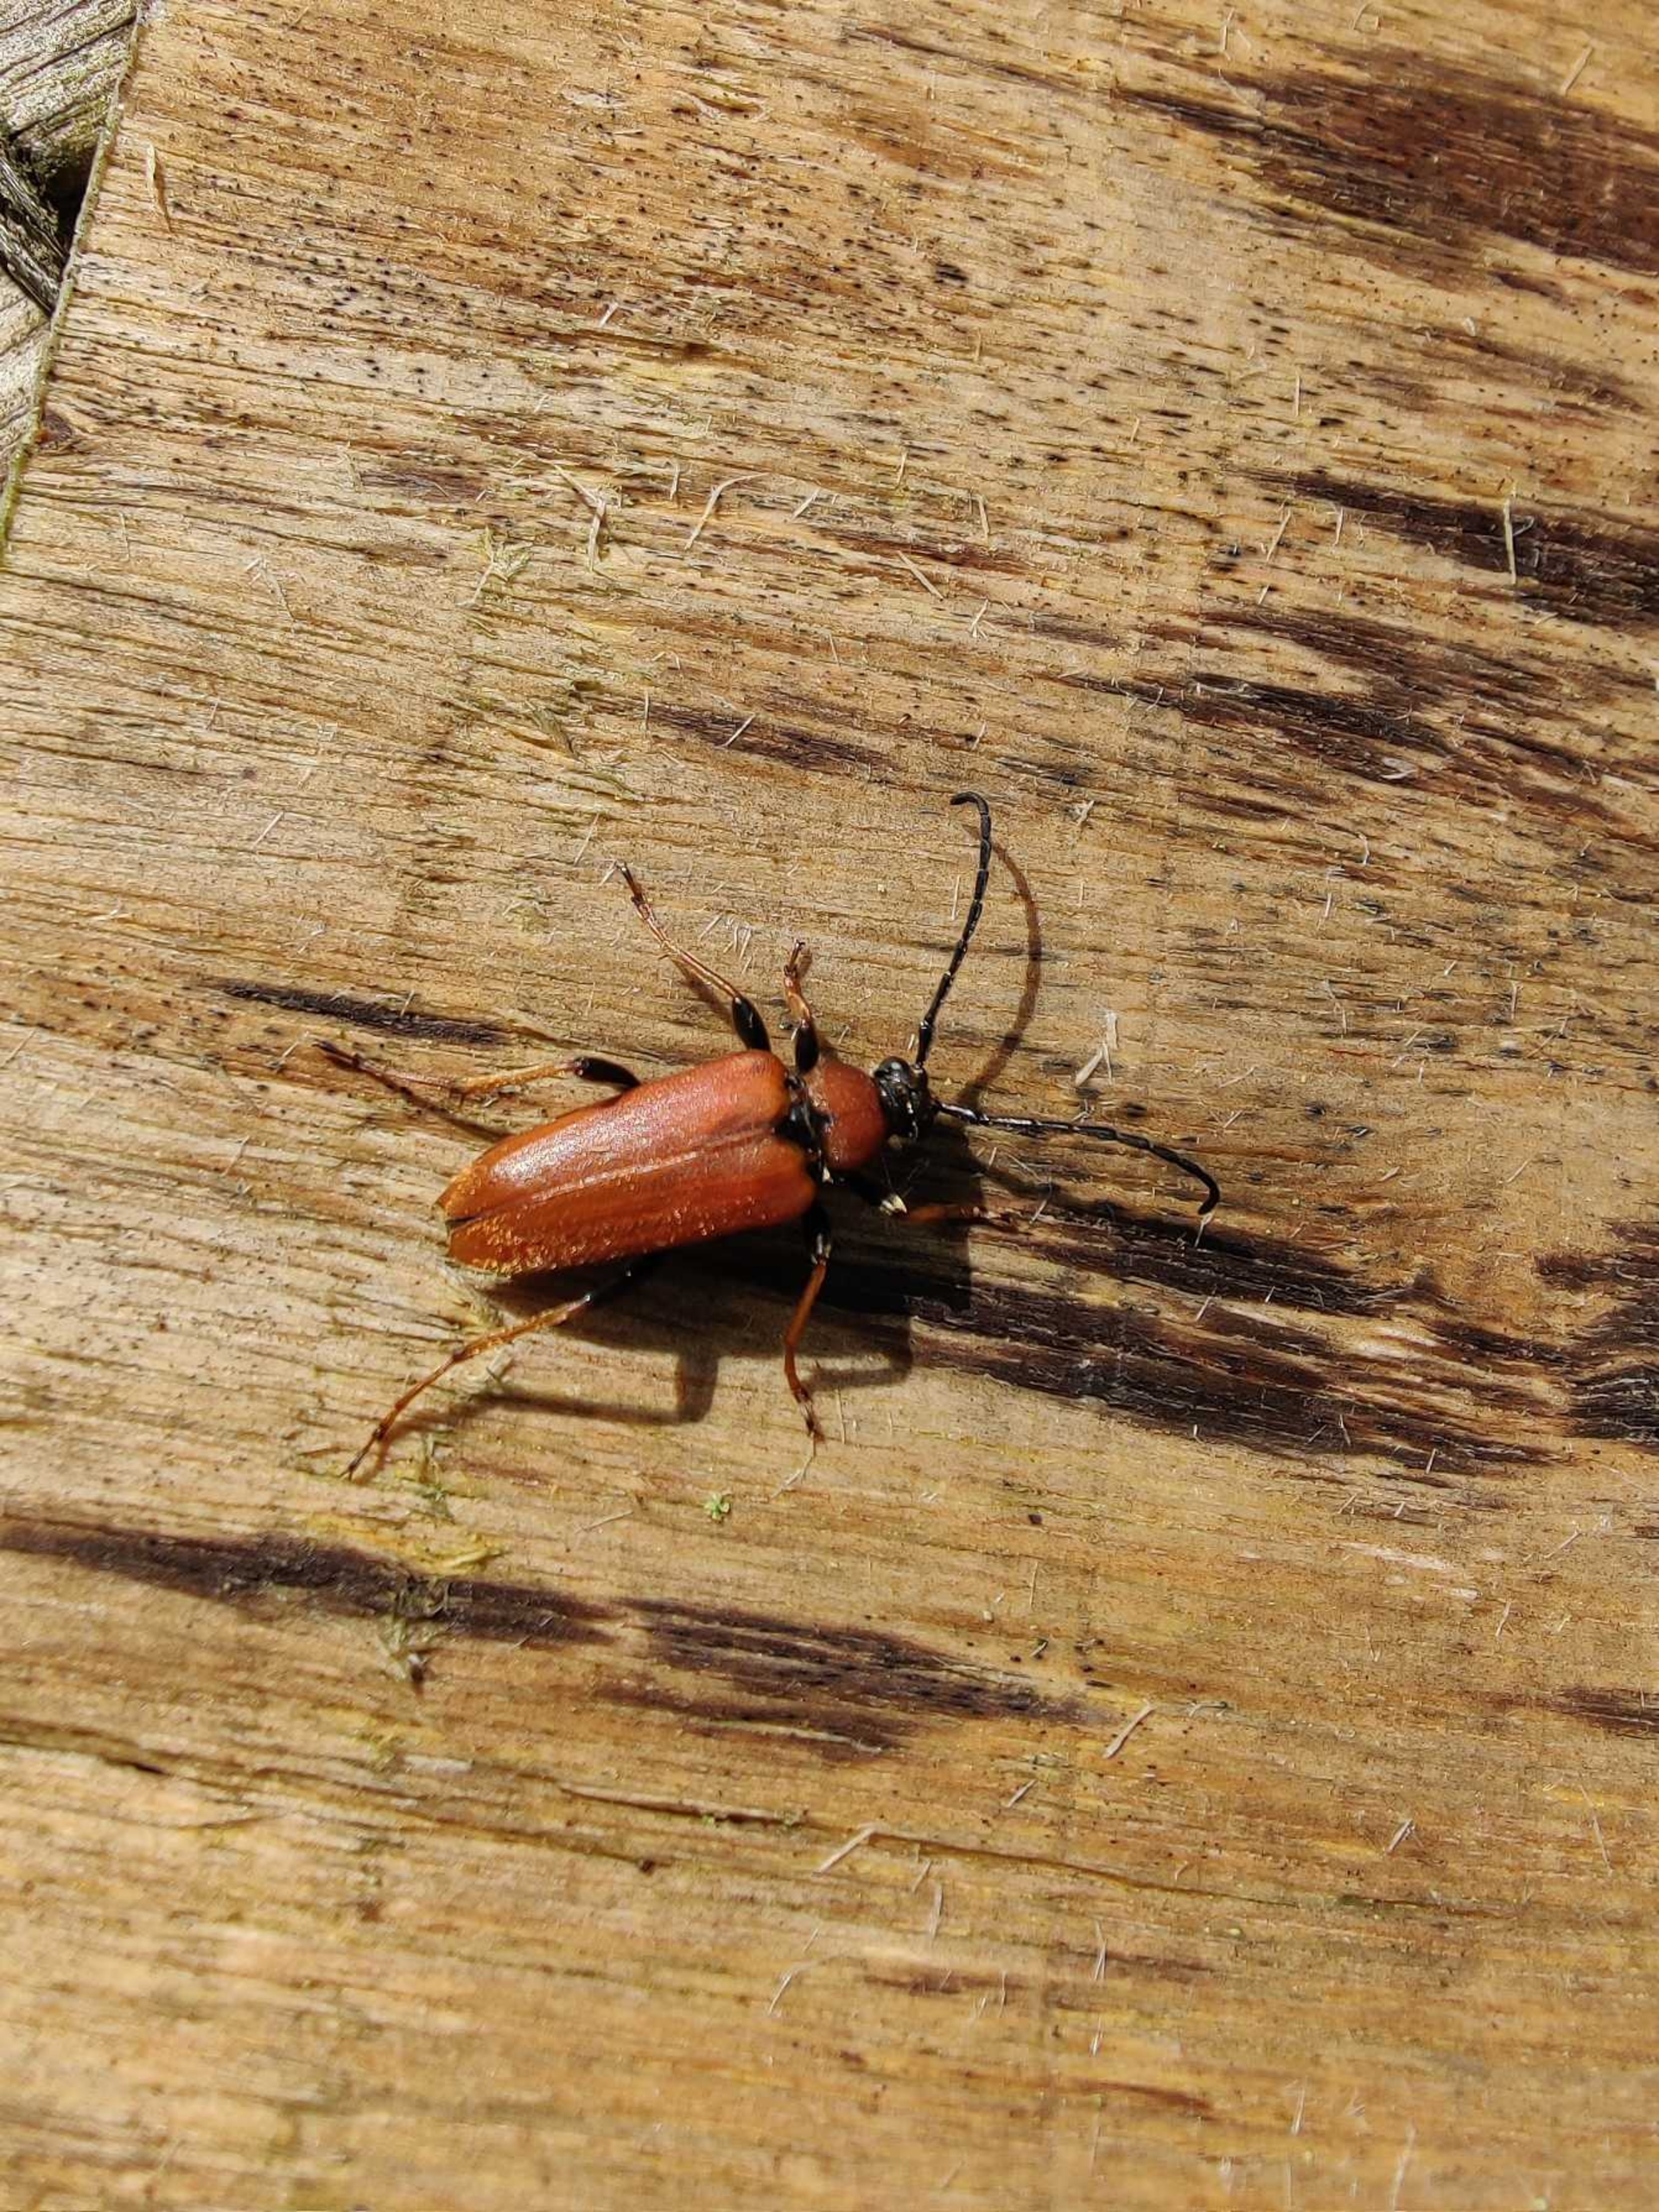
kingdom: Animalia
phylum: Arthropoda
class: Insecta
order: Coleoptera
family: Cerambycidae
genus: Stictoleptura
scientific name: Stictoleptura rubra
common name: Rød blomsterbuk
